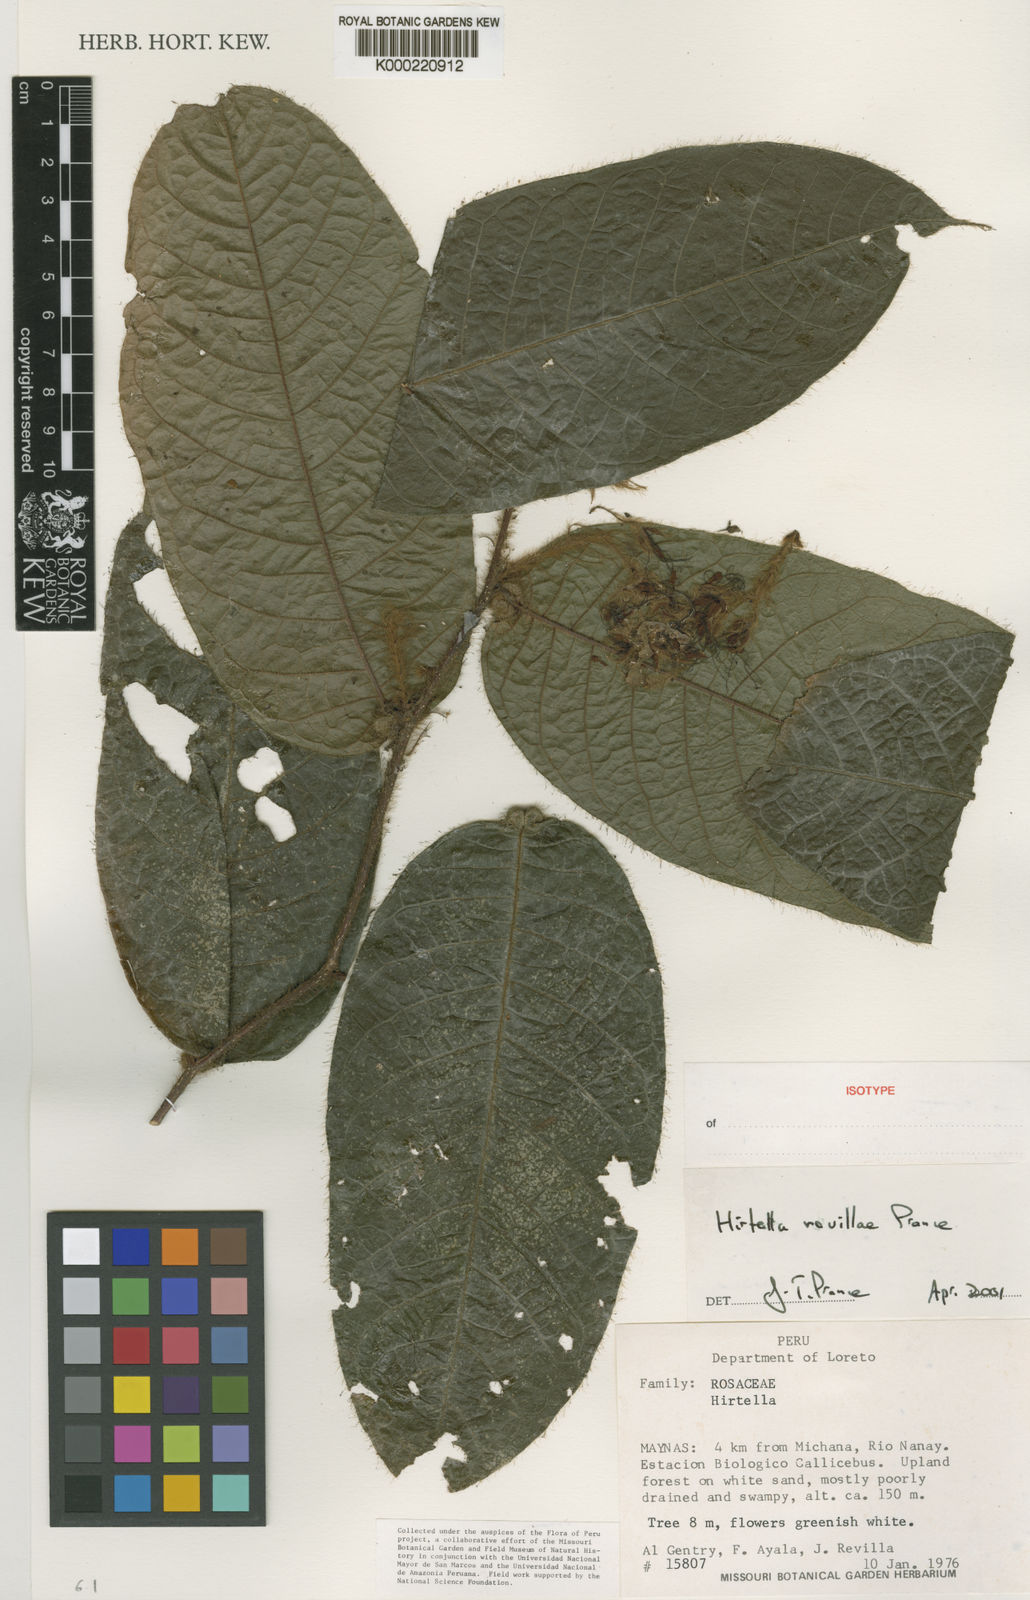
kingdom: Plantae
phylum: Tracheophyta
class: Magnoliopsida
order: Malpighiales
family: Chrysobalanaceae
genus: Hirtella
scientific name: Hirtella revillae
